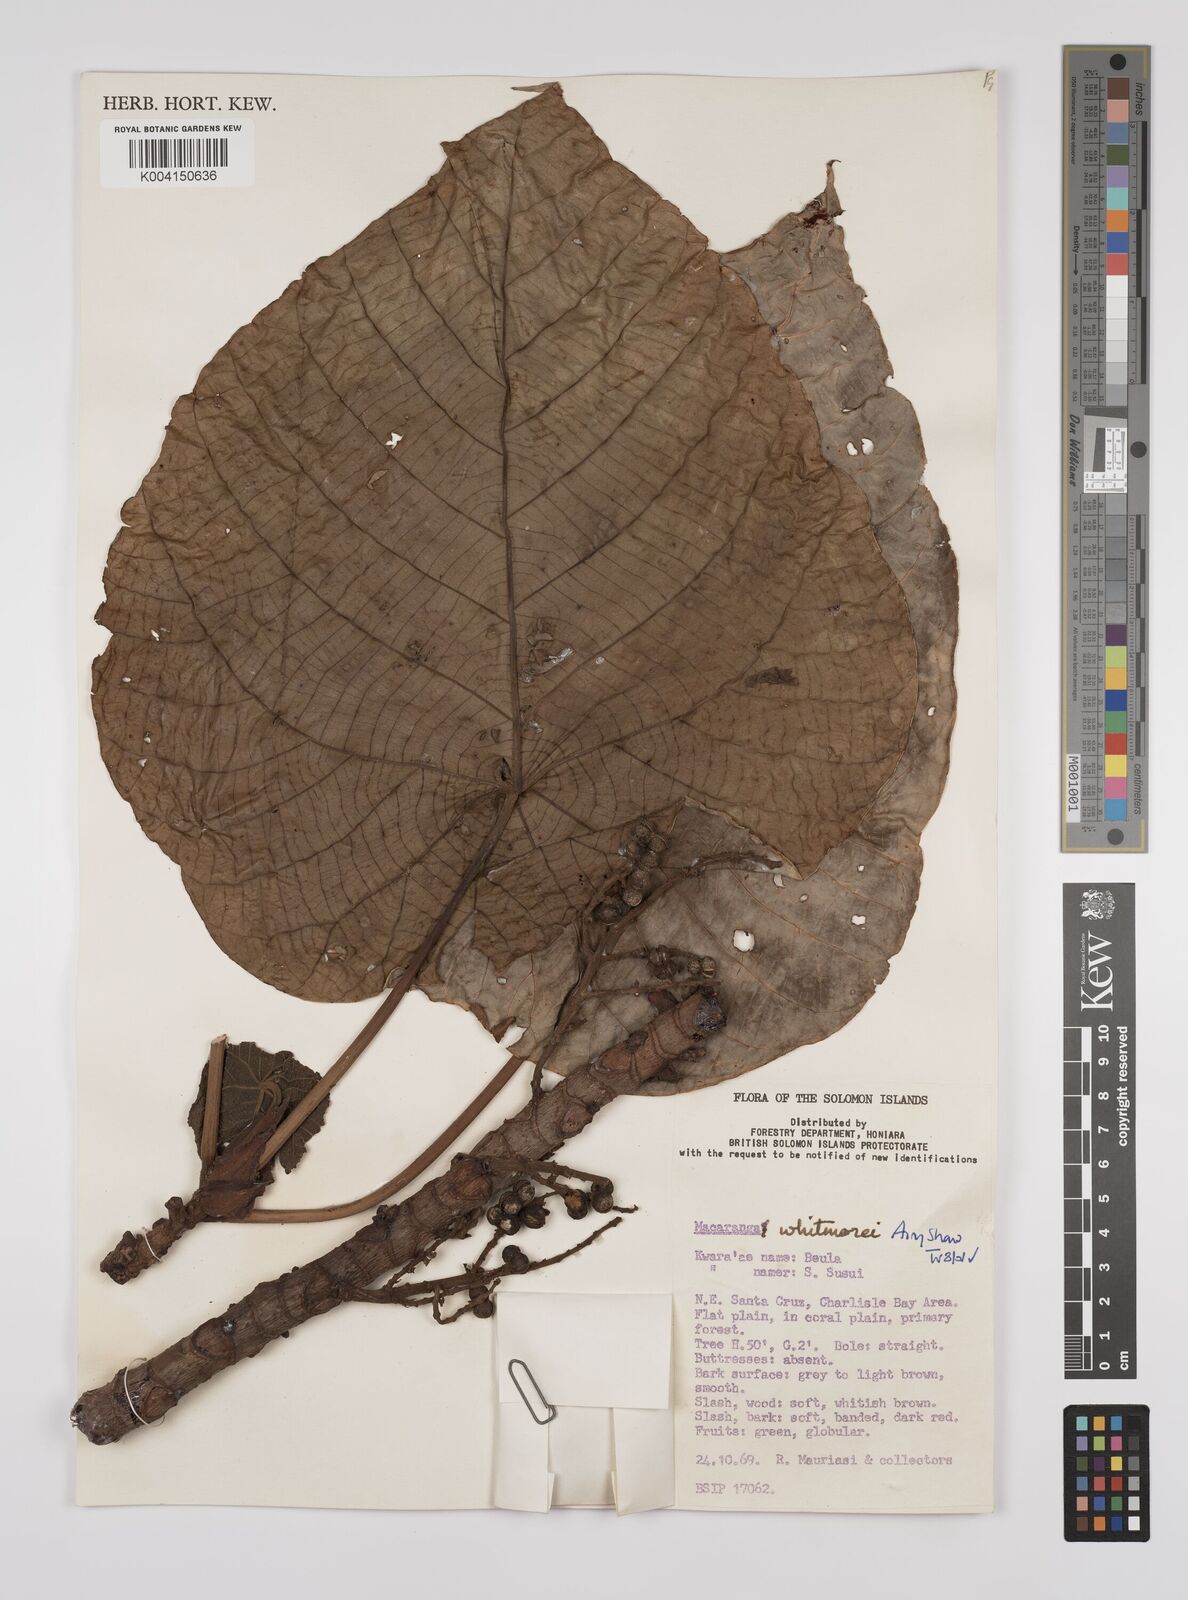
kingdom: Plantae
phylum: Tracheophyta
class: Magnoliopsida
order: Malpighiales
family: Euphorbiaceae
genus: Macaranga
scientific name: Macaranga whitmorei
